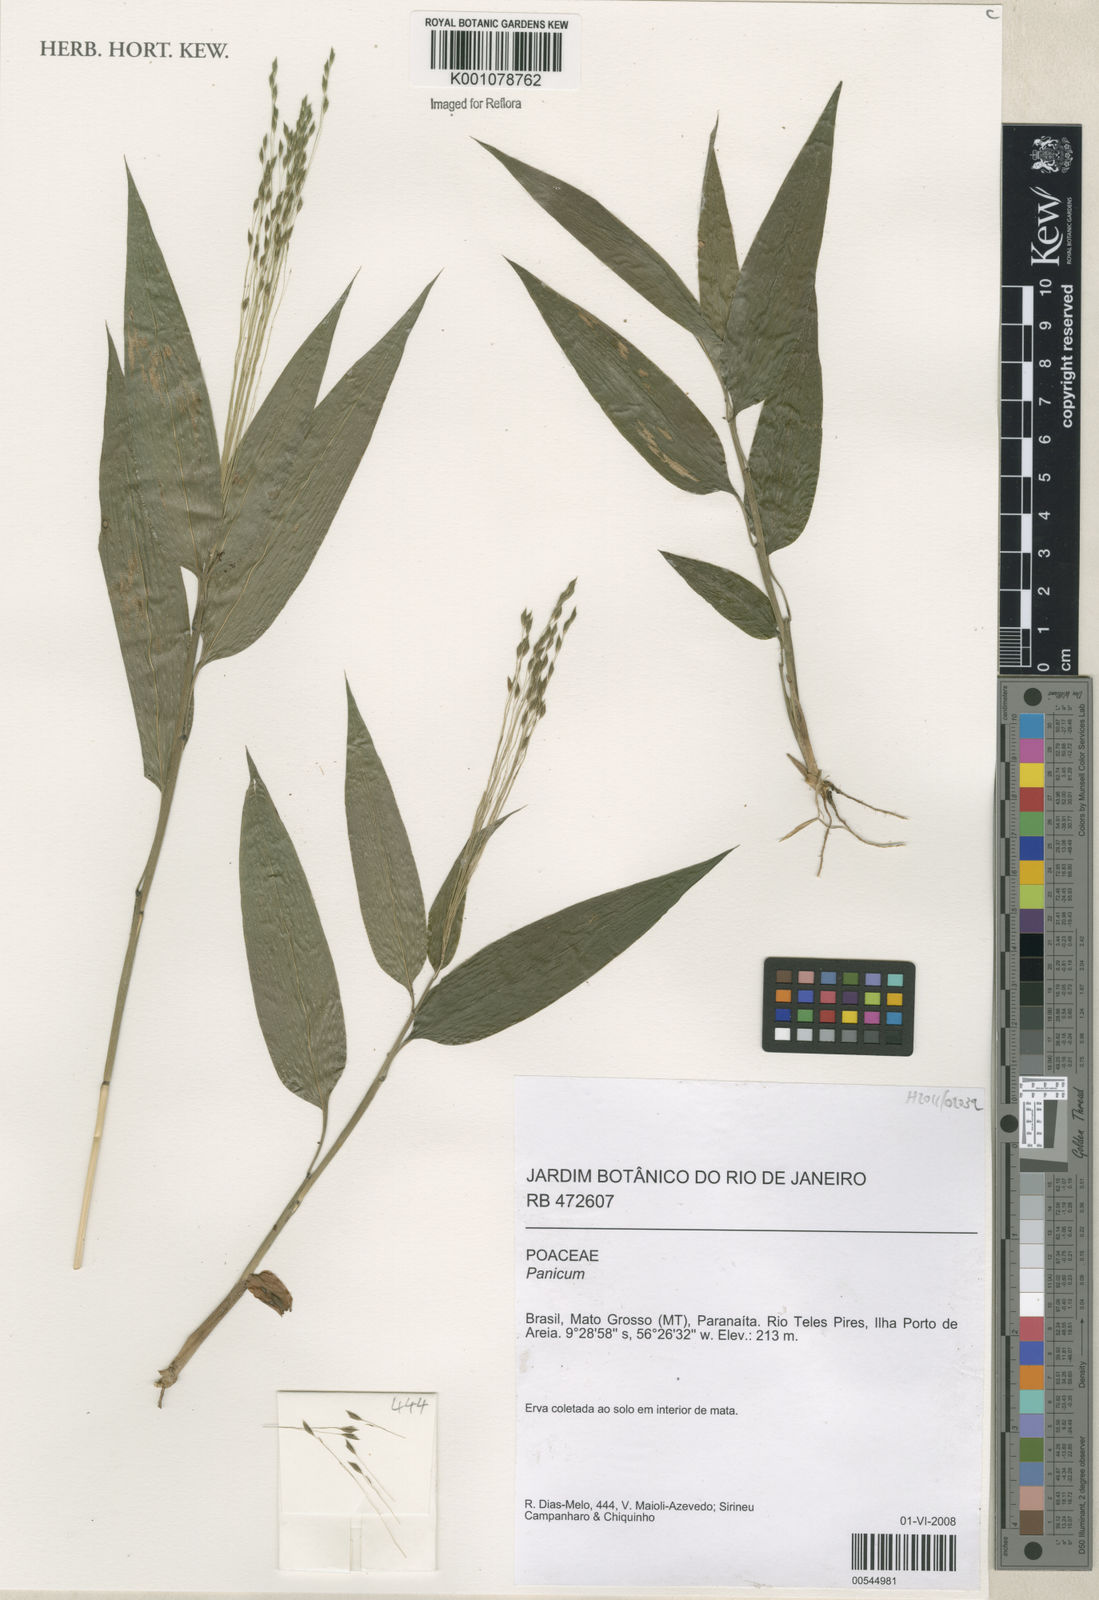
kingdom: Plantae
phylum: Tracheophyta
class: Liliopsida
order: Poales
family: Poaceae
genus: Panicum
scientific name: Panicum
